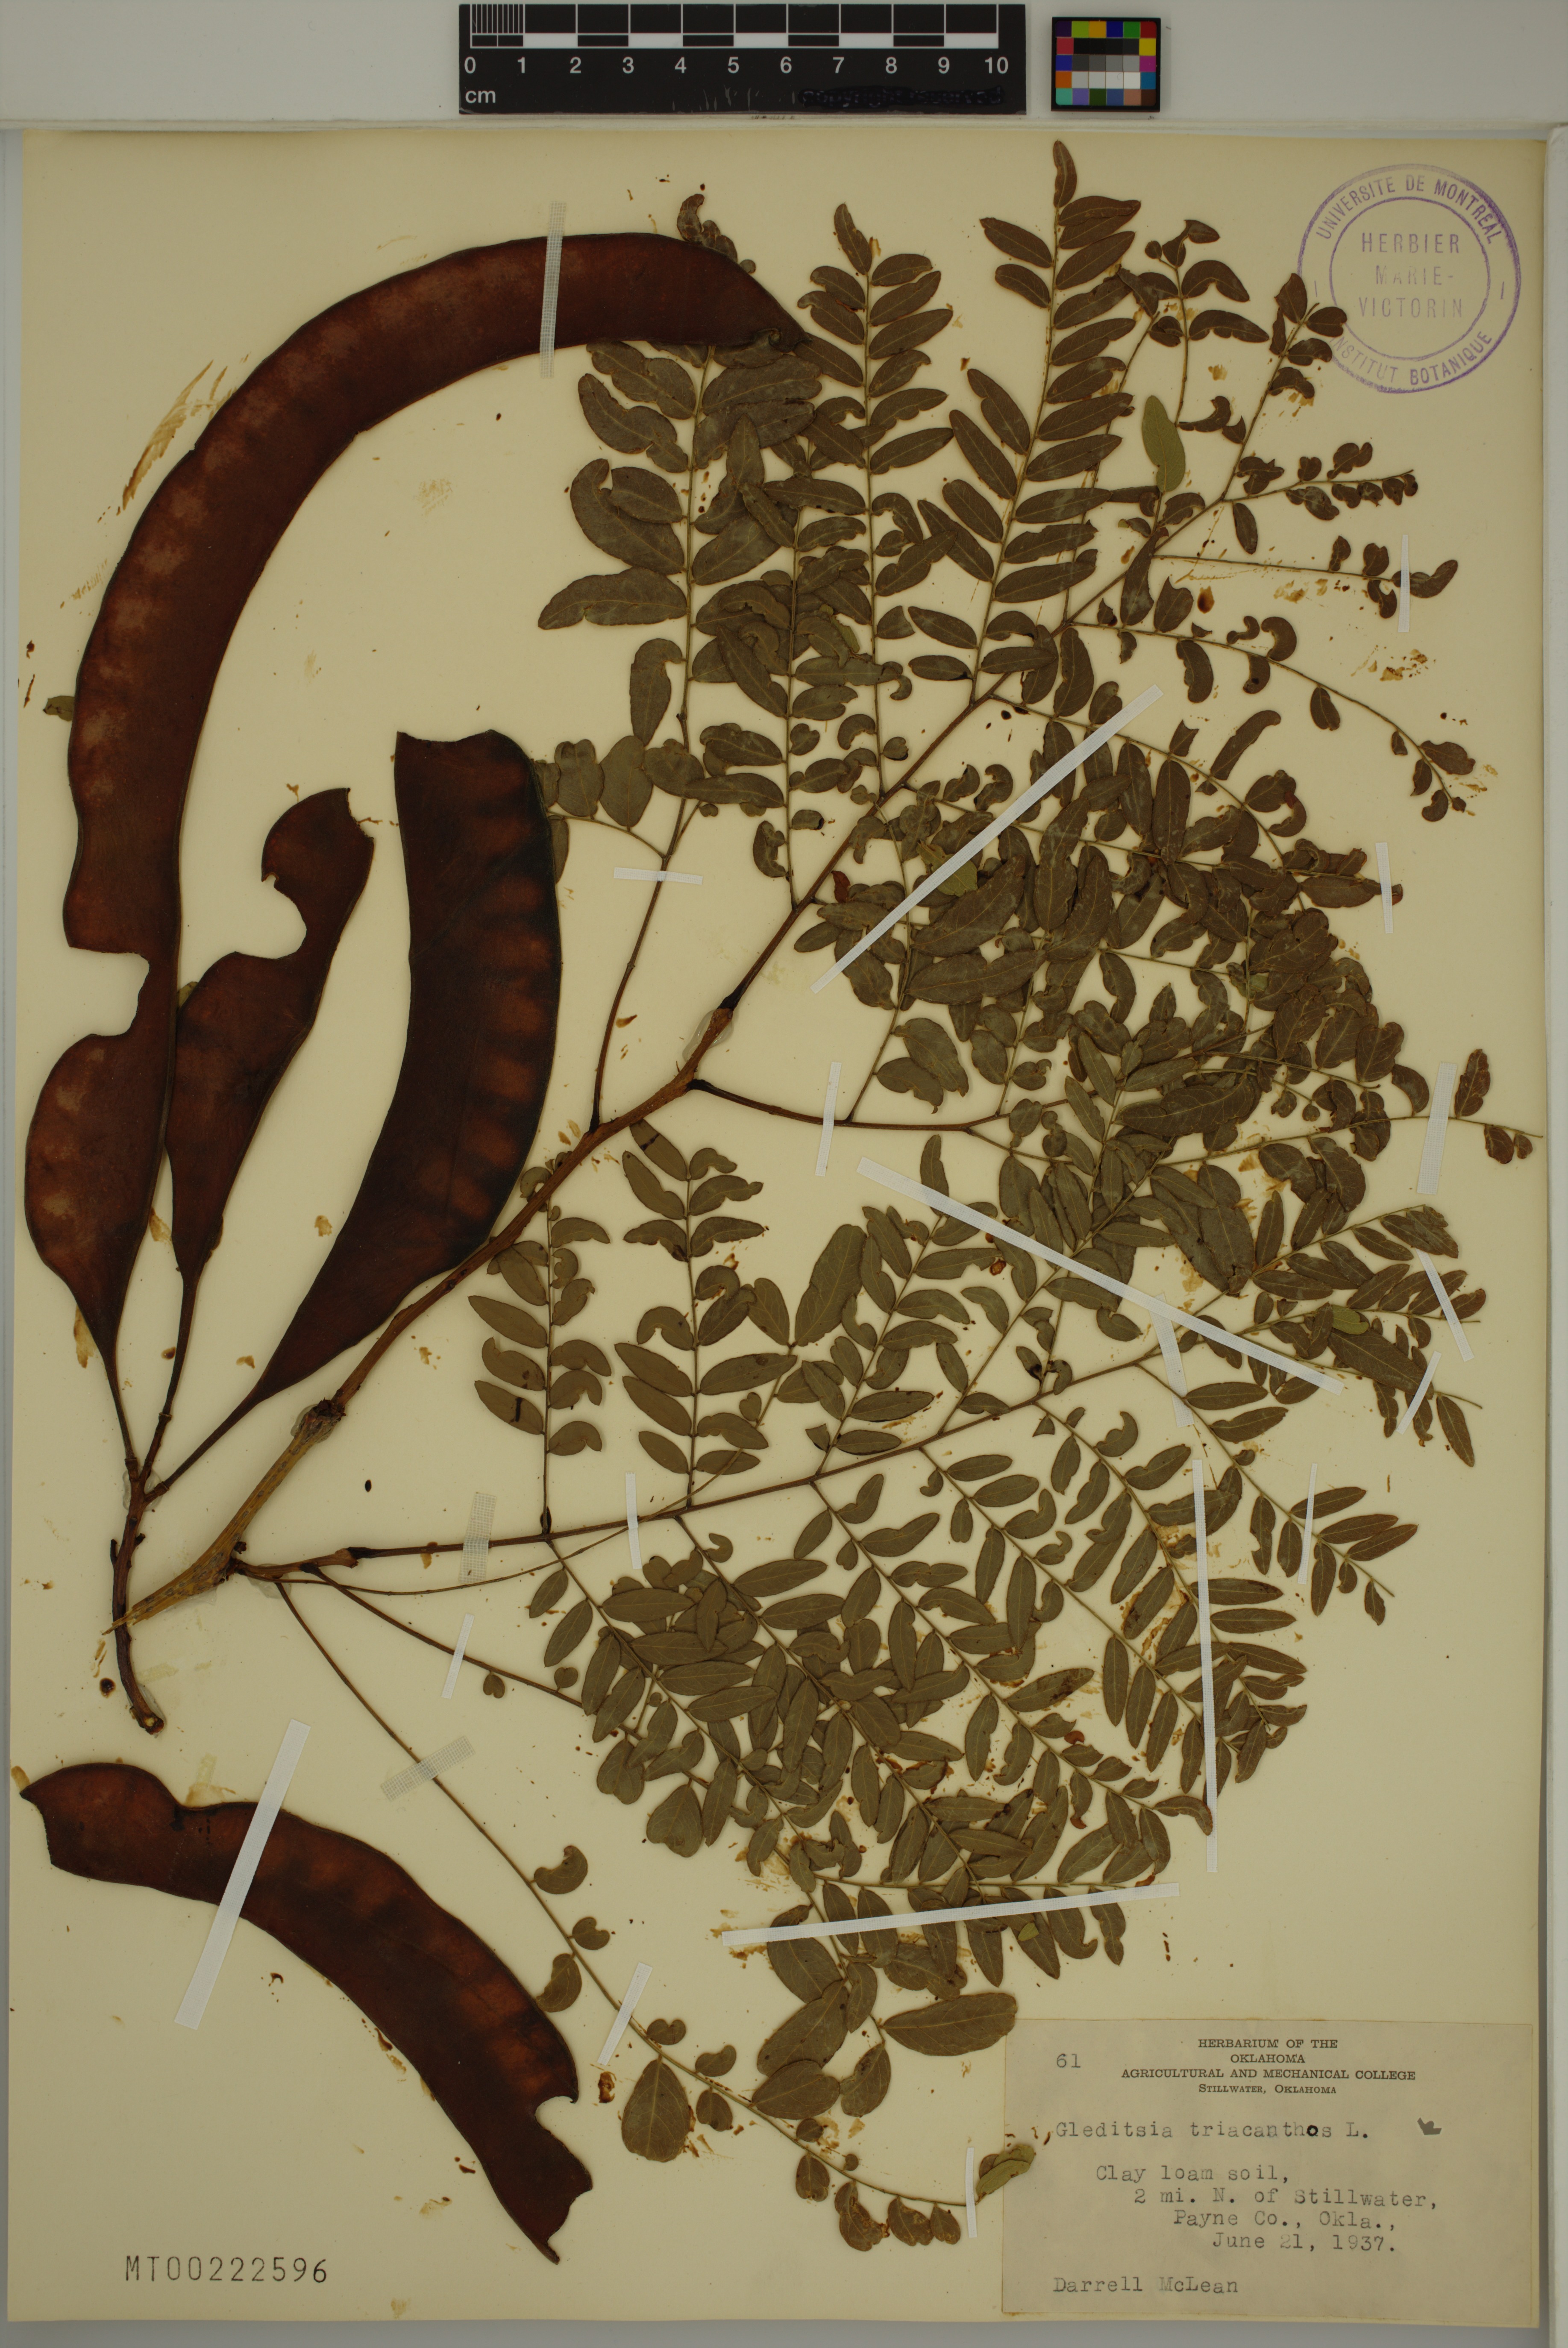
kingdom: Plantae
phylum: Tracheophyta
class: Magnoliopsida
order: Fabales
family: Fabaceae
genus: Gleditsia
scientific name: Gleditsia triacanthos
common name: Common honeylocust
